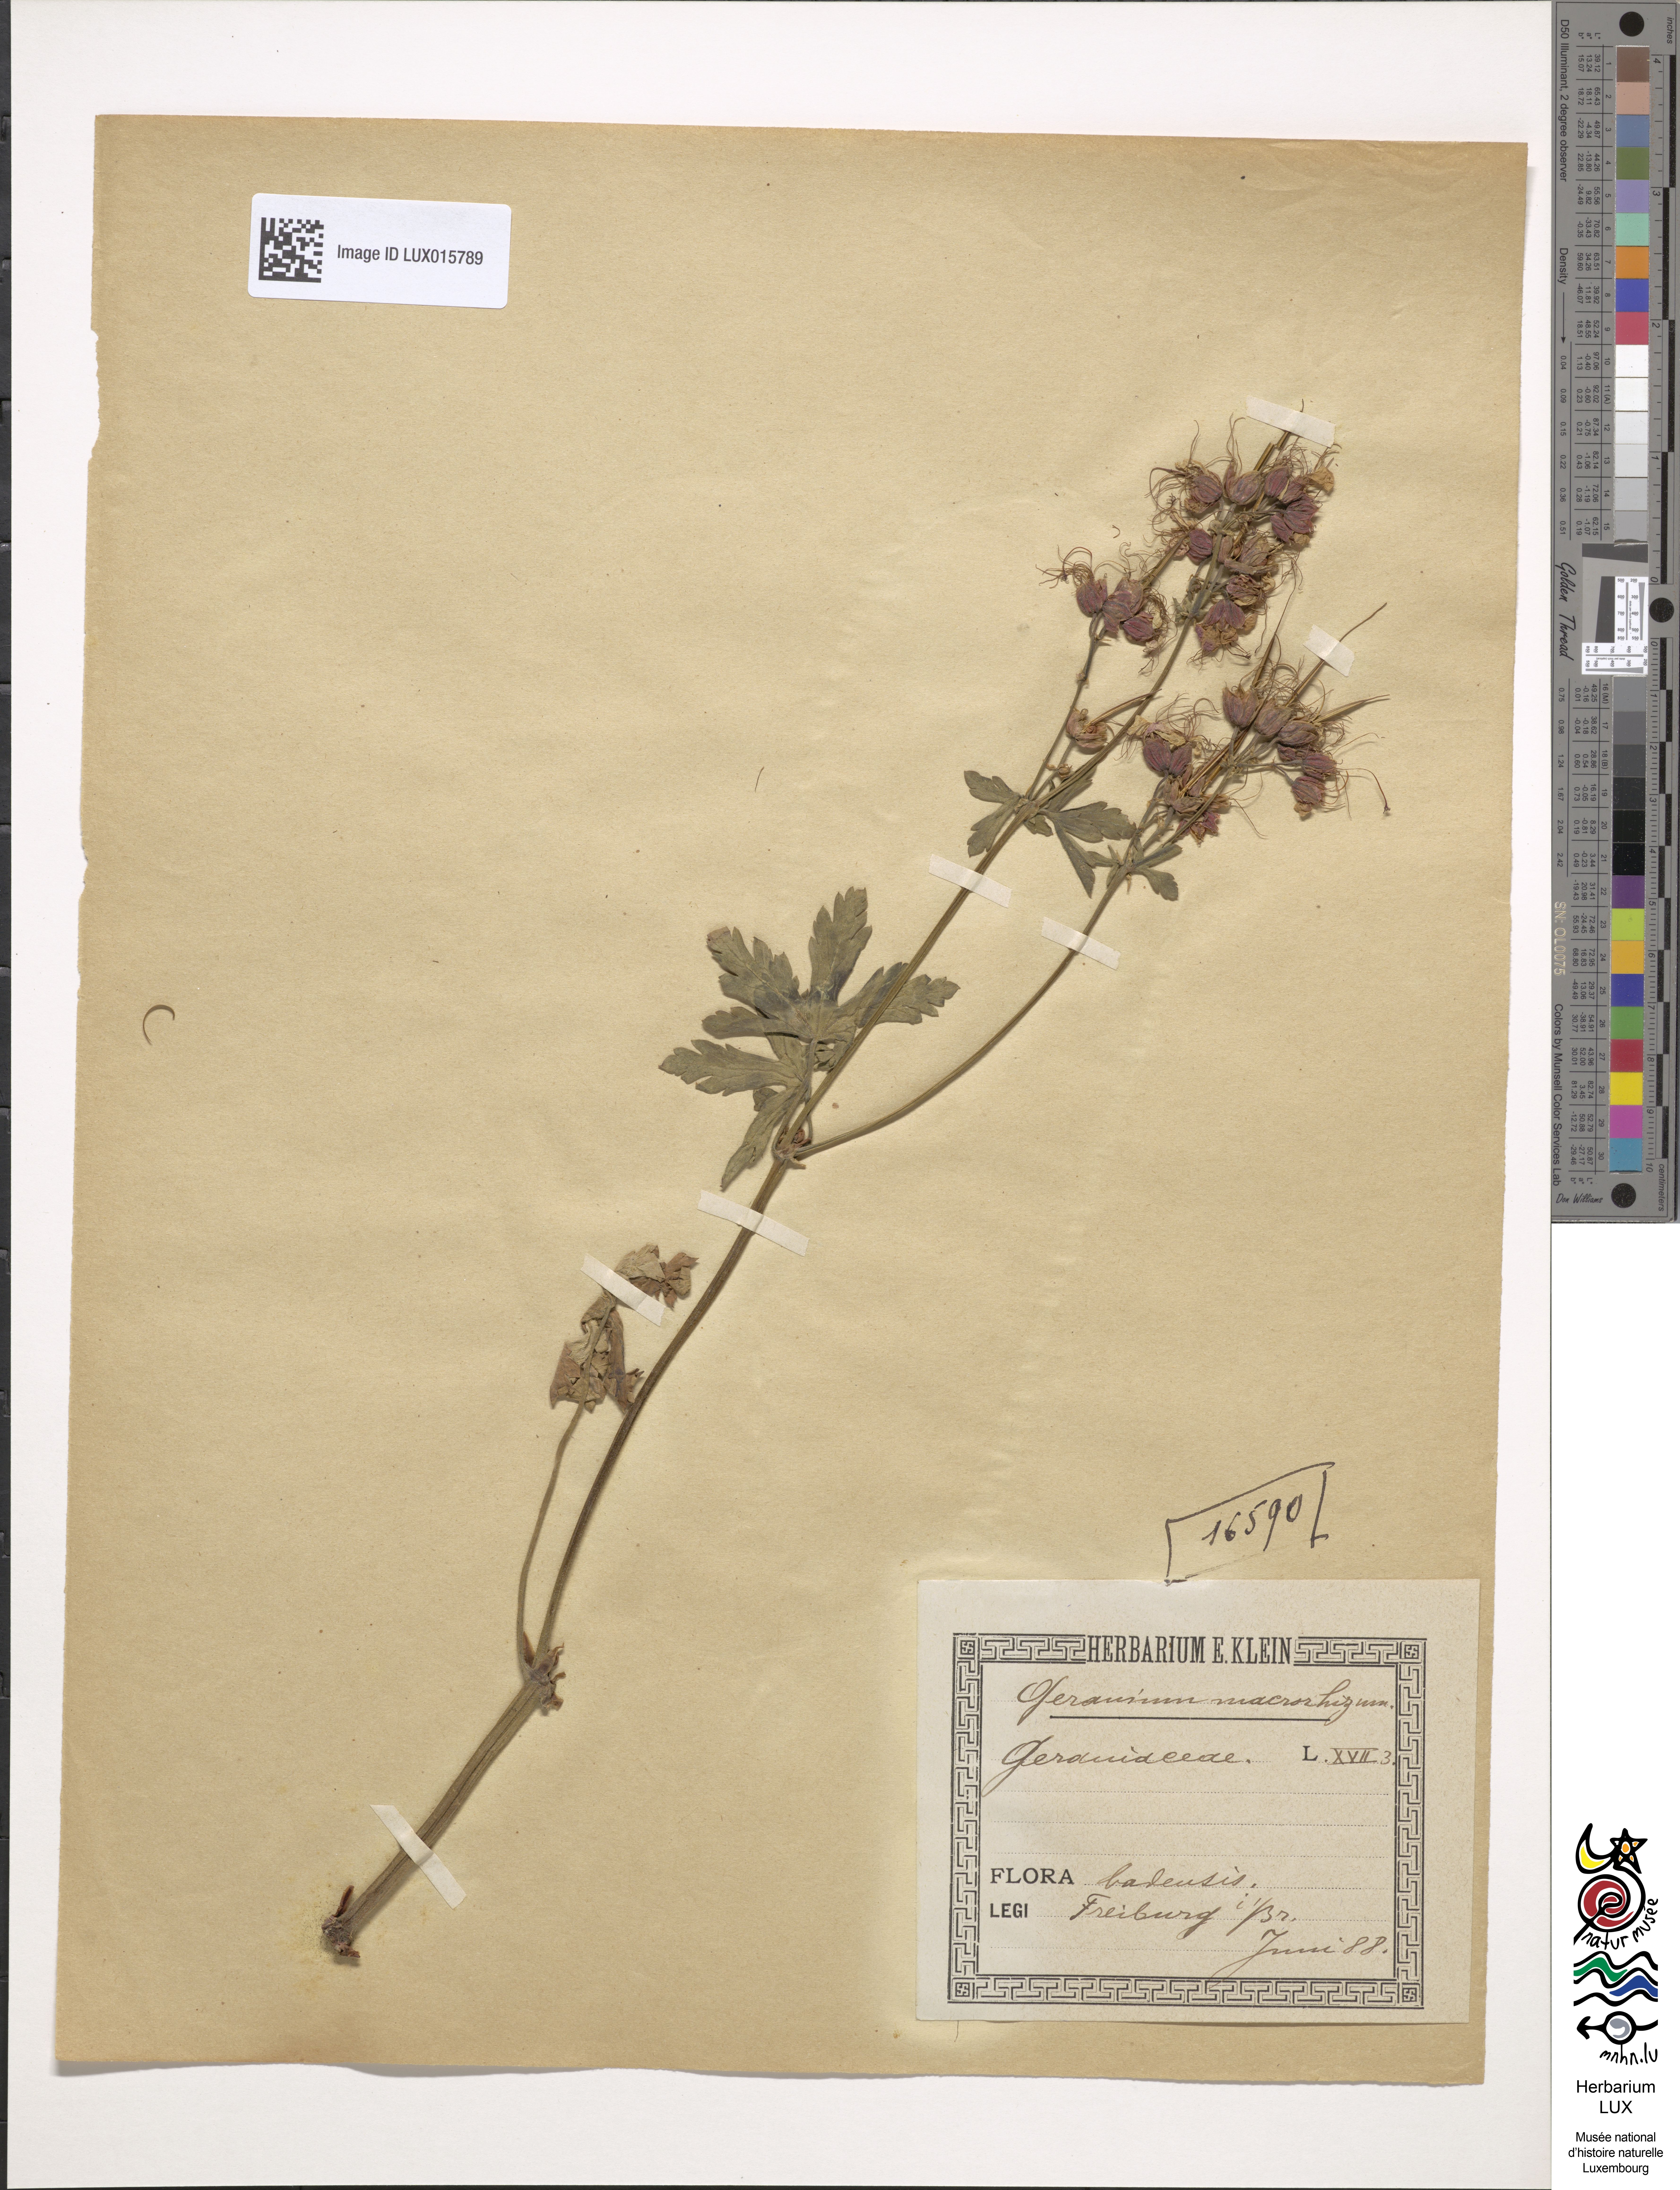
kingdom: Plantae
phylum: Tracheophyta
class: Magnoliopsida
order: Geraniales
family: Geraniaceae
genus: Geranium
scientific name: Geranium macrorrhizum
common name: Rock crane's-bill
